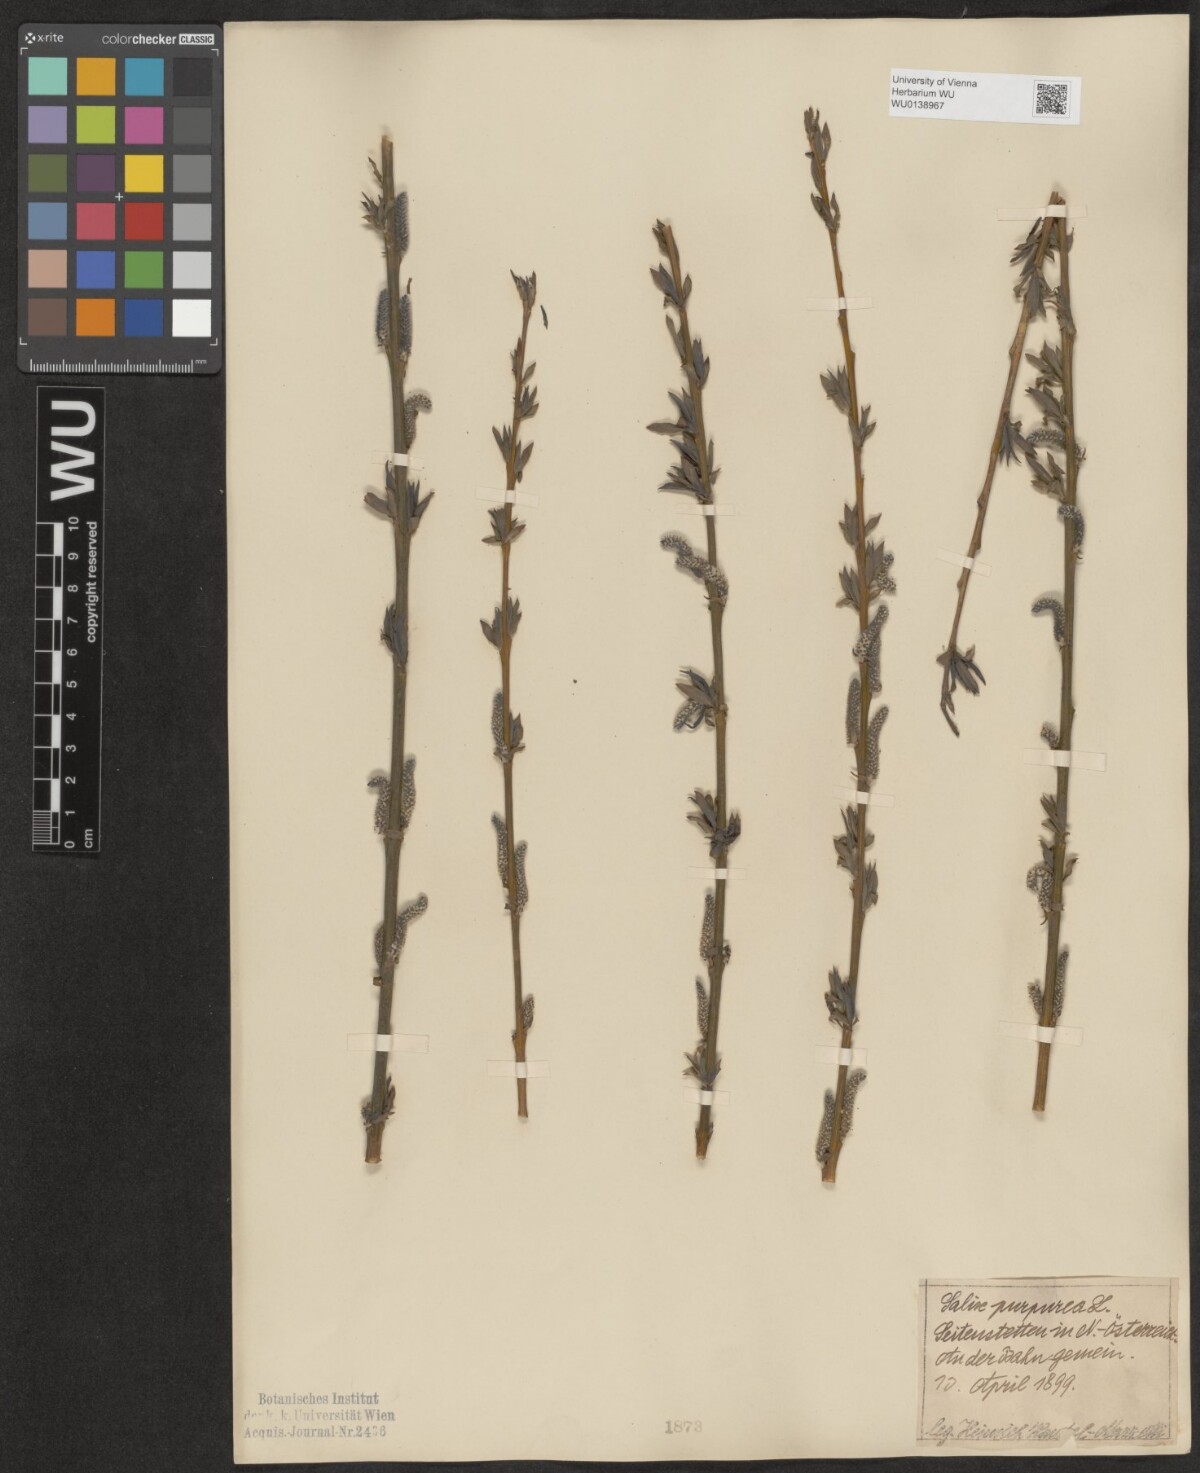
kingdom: Plantae
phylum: Tracheophyta
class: Magnoliopsida
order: Malpighiales
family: Salicaceae
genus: Salix
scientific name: Salix purpurea
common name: Purple willow
